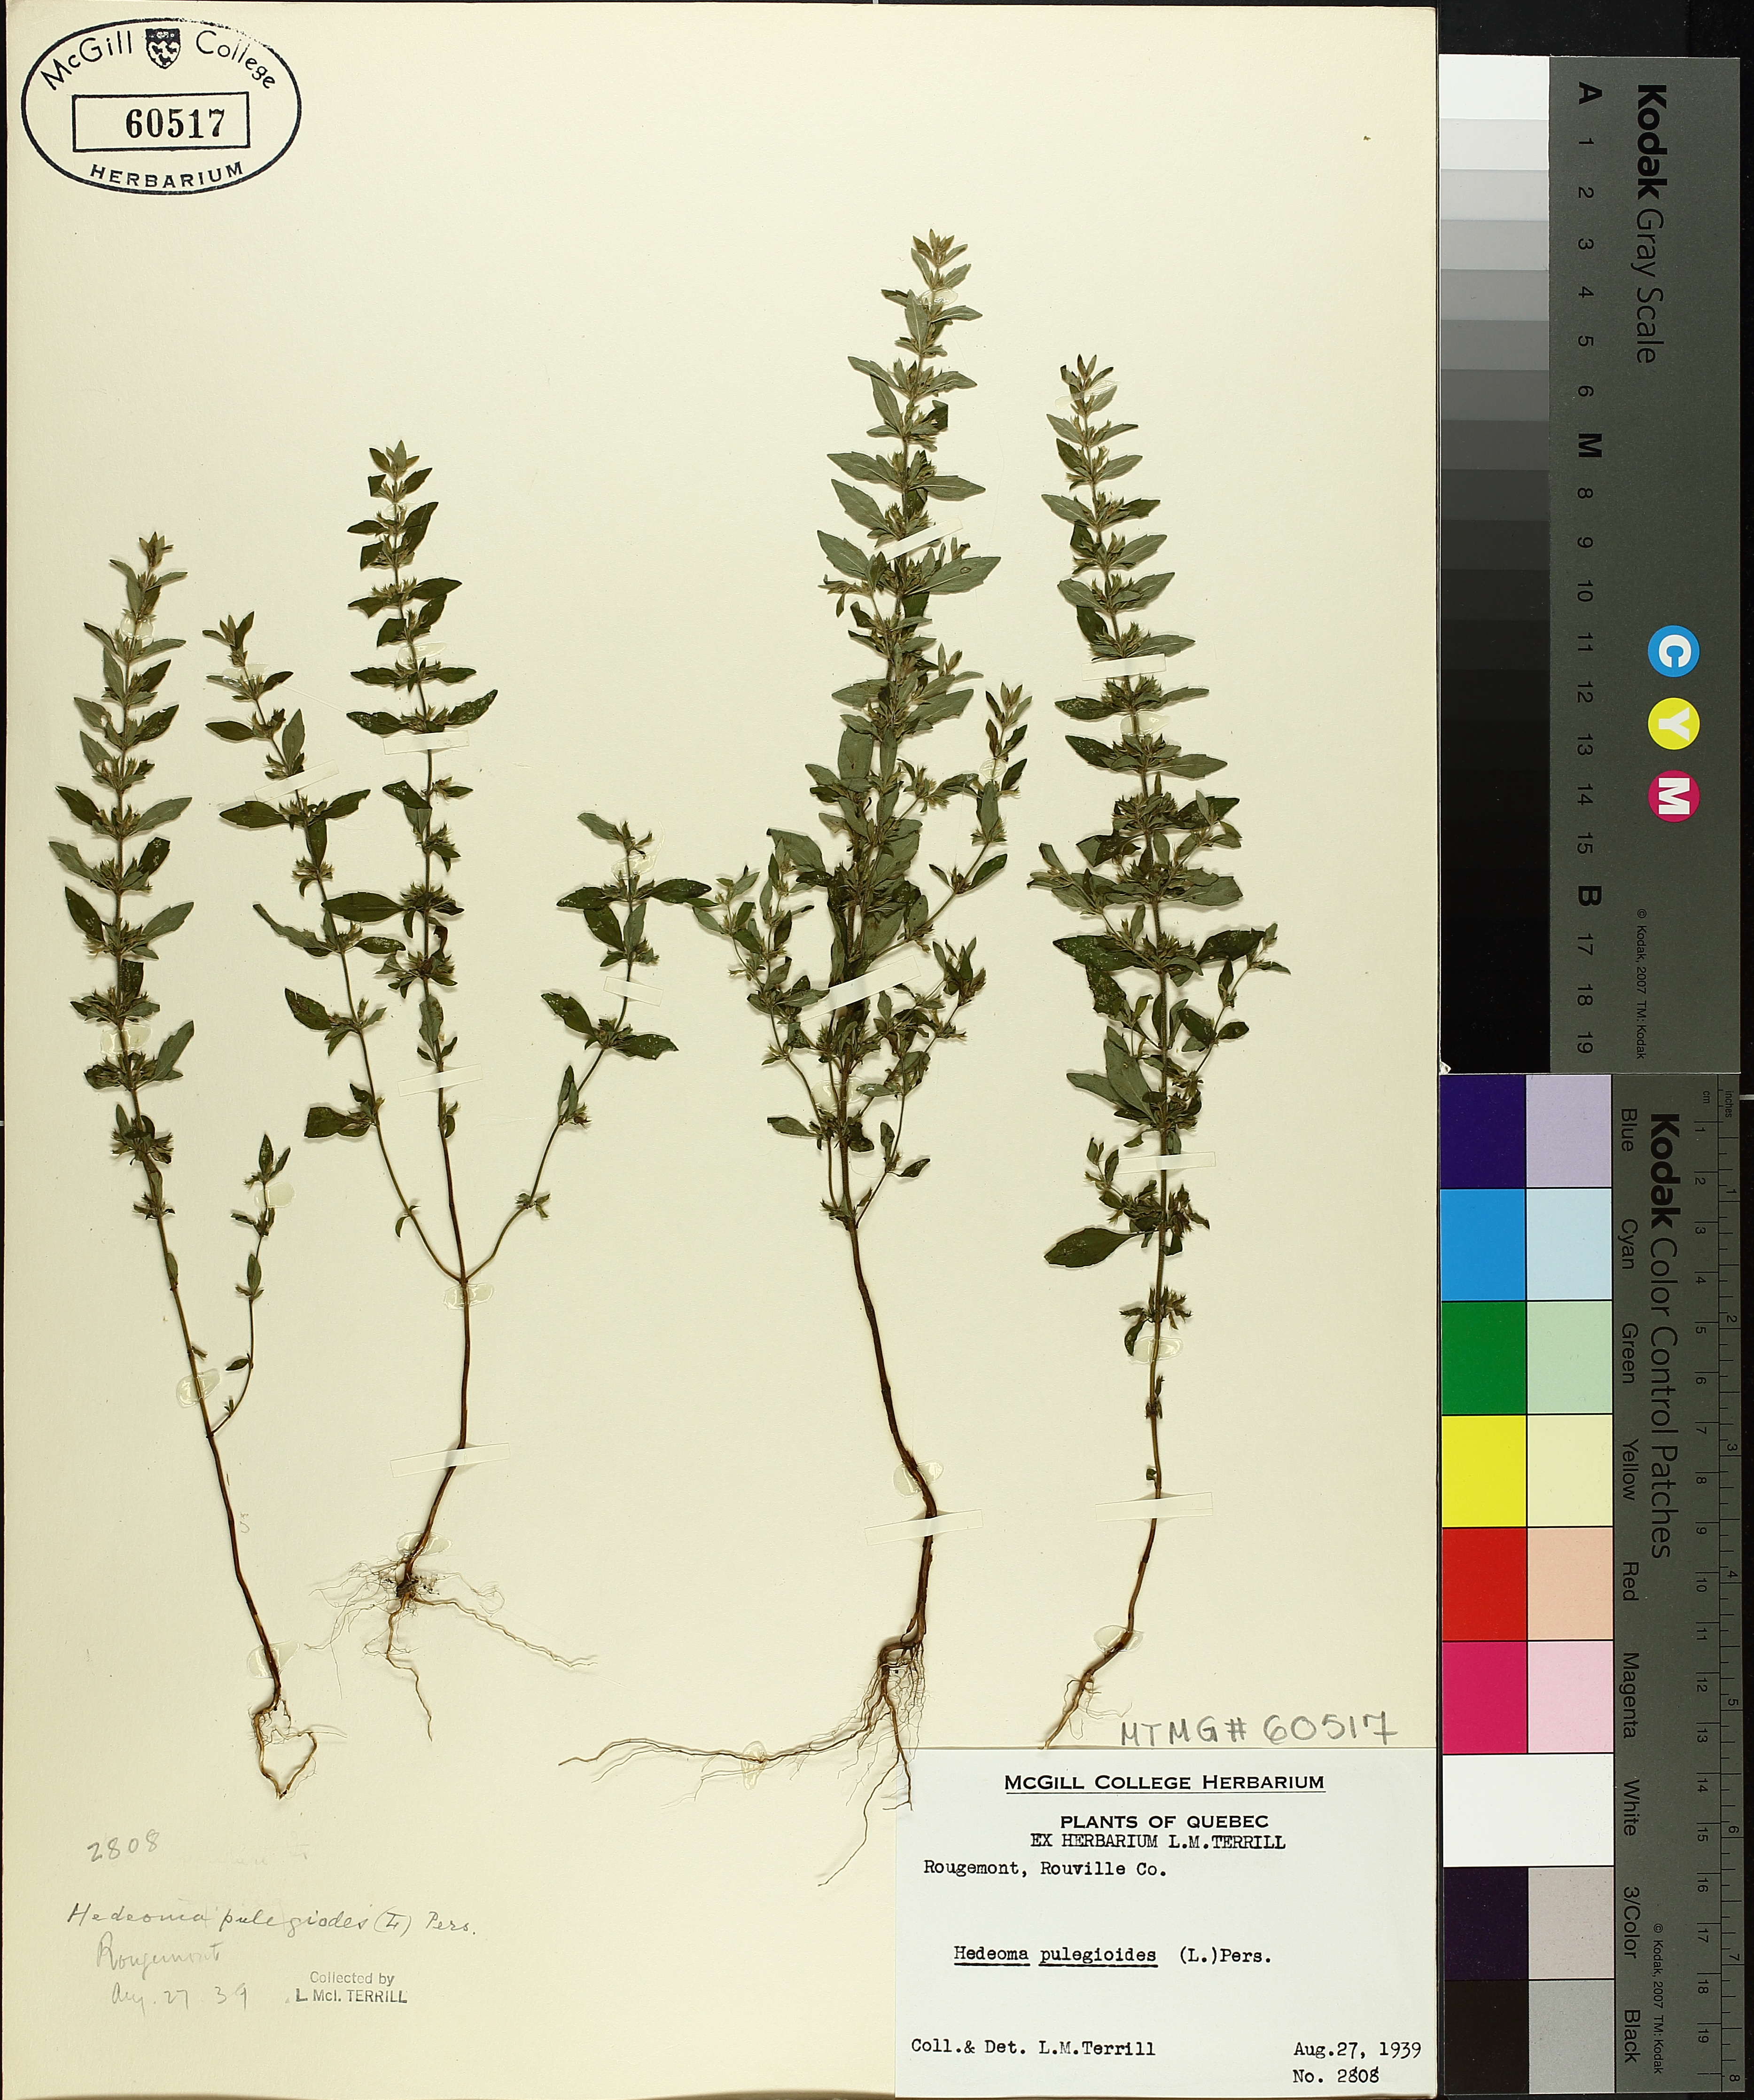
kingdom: Plantae
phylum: Tracheophyta
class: Magnoliopsida
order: Lamiales
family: Lamiaceae
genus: Hedeoma
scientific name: Hedeoma pulegioides
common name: American false pennyroyal
